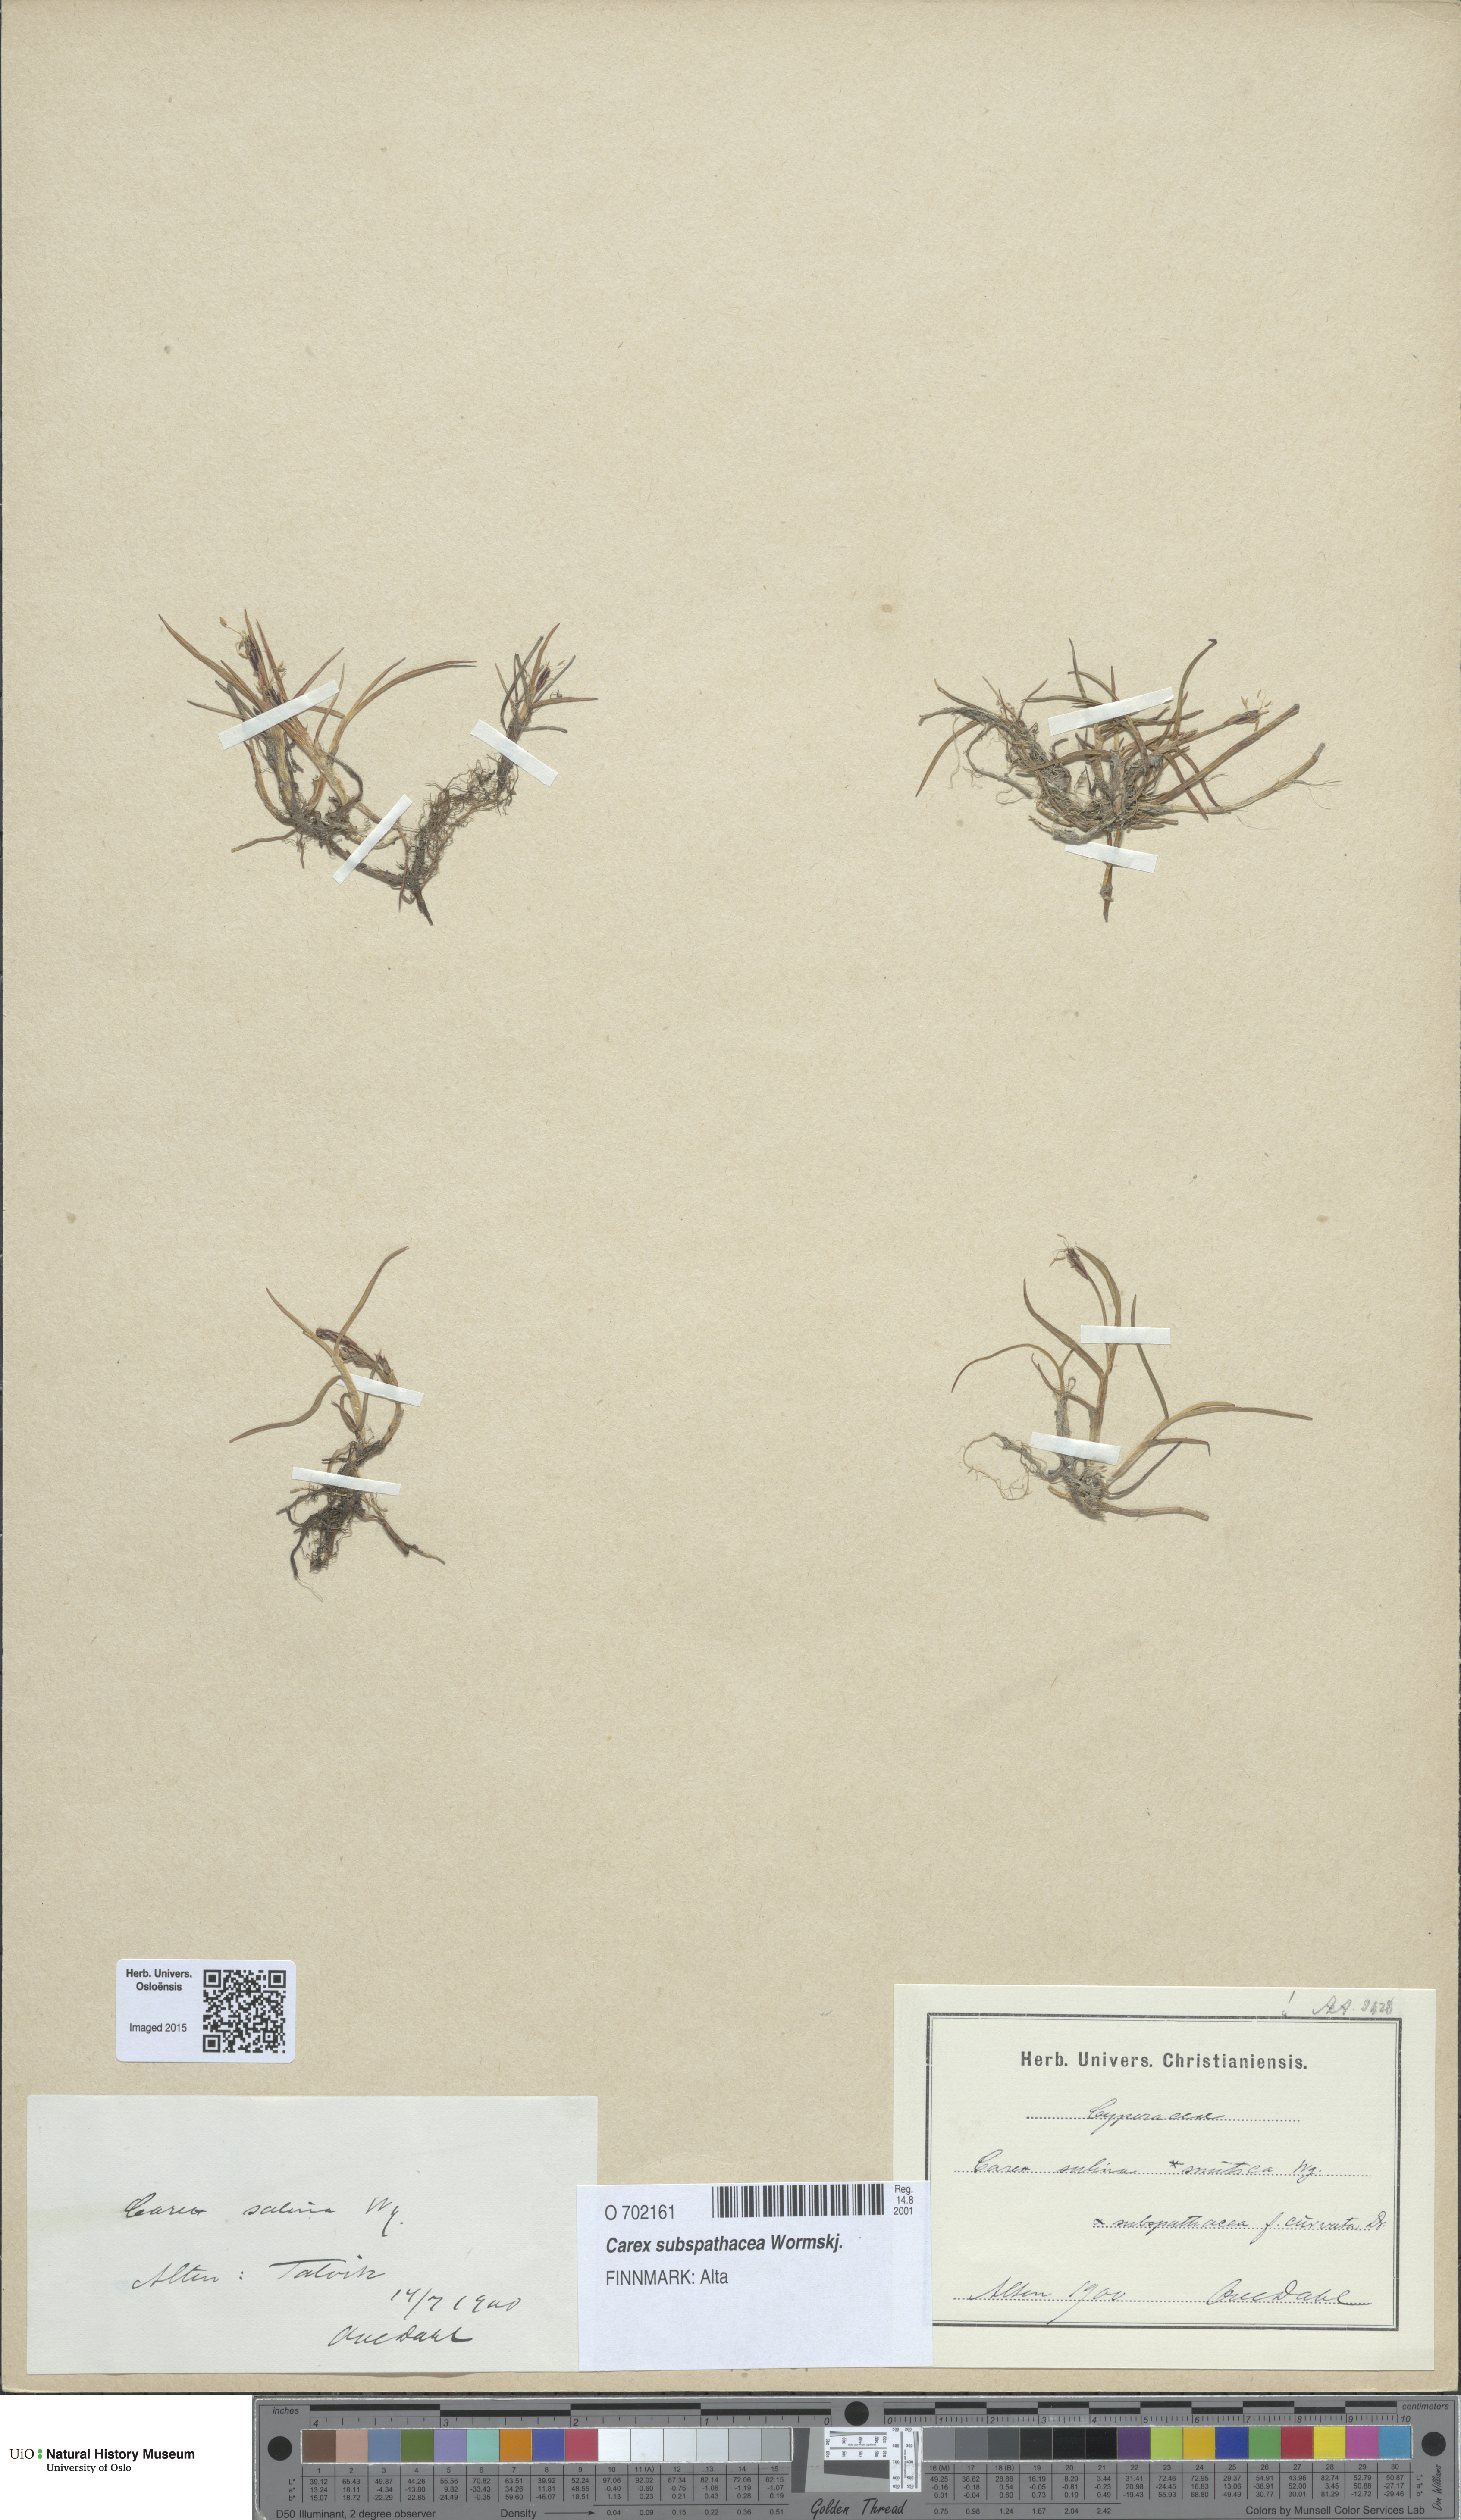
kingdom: Plantae
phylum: Tracheophyta
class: Liliopsida
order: Poales
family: Cyperaceae
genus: Carex
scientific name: Carex subspathacea
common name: Hoppner's sedge
